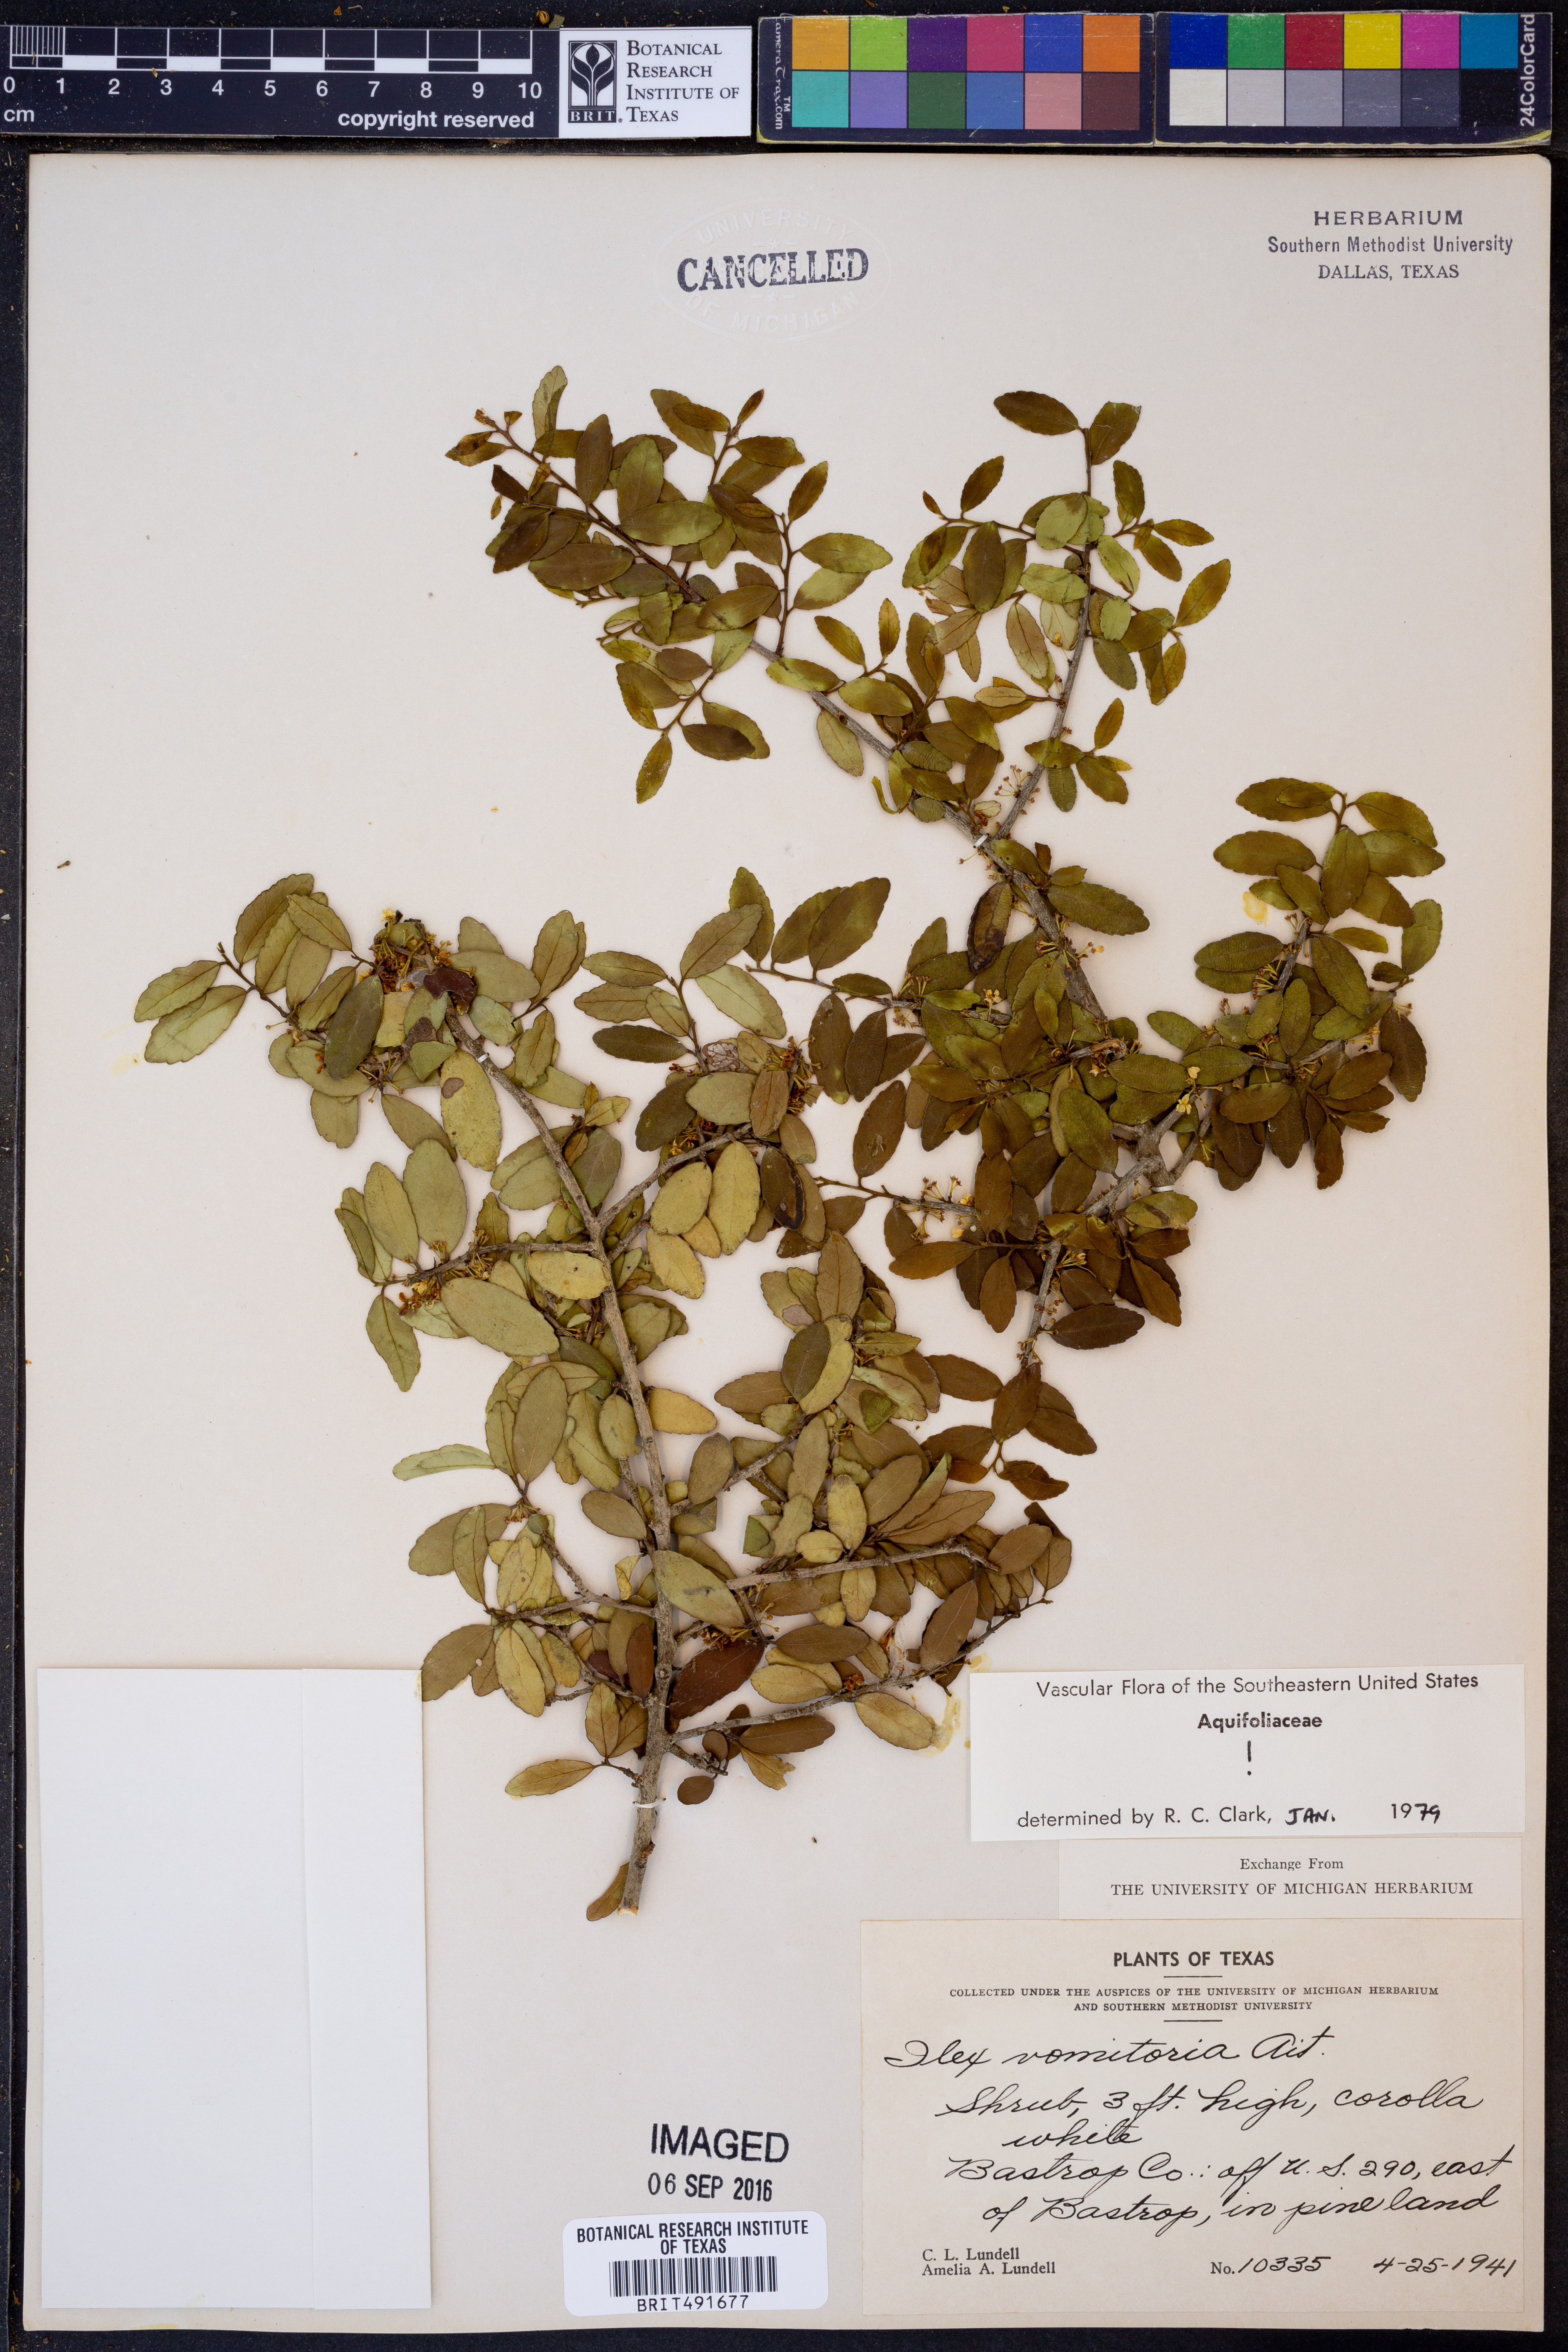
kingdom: Plantae
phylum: Tracheophyta
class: Magnoliopsida
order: Aquifoliales
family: Aquifoliaceae
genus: Ilex
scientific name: Ilex vomitoria
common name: Yaupon holly
